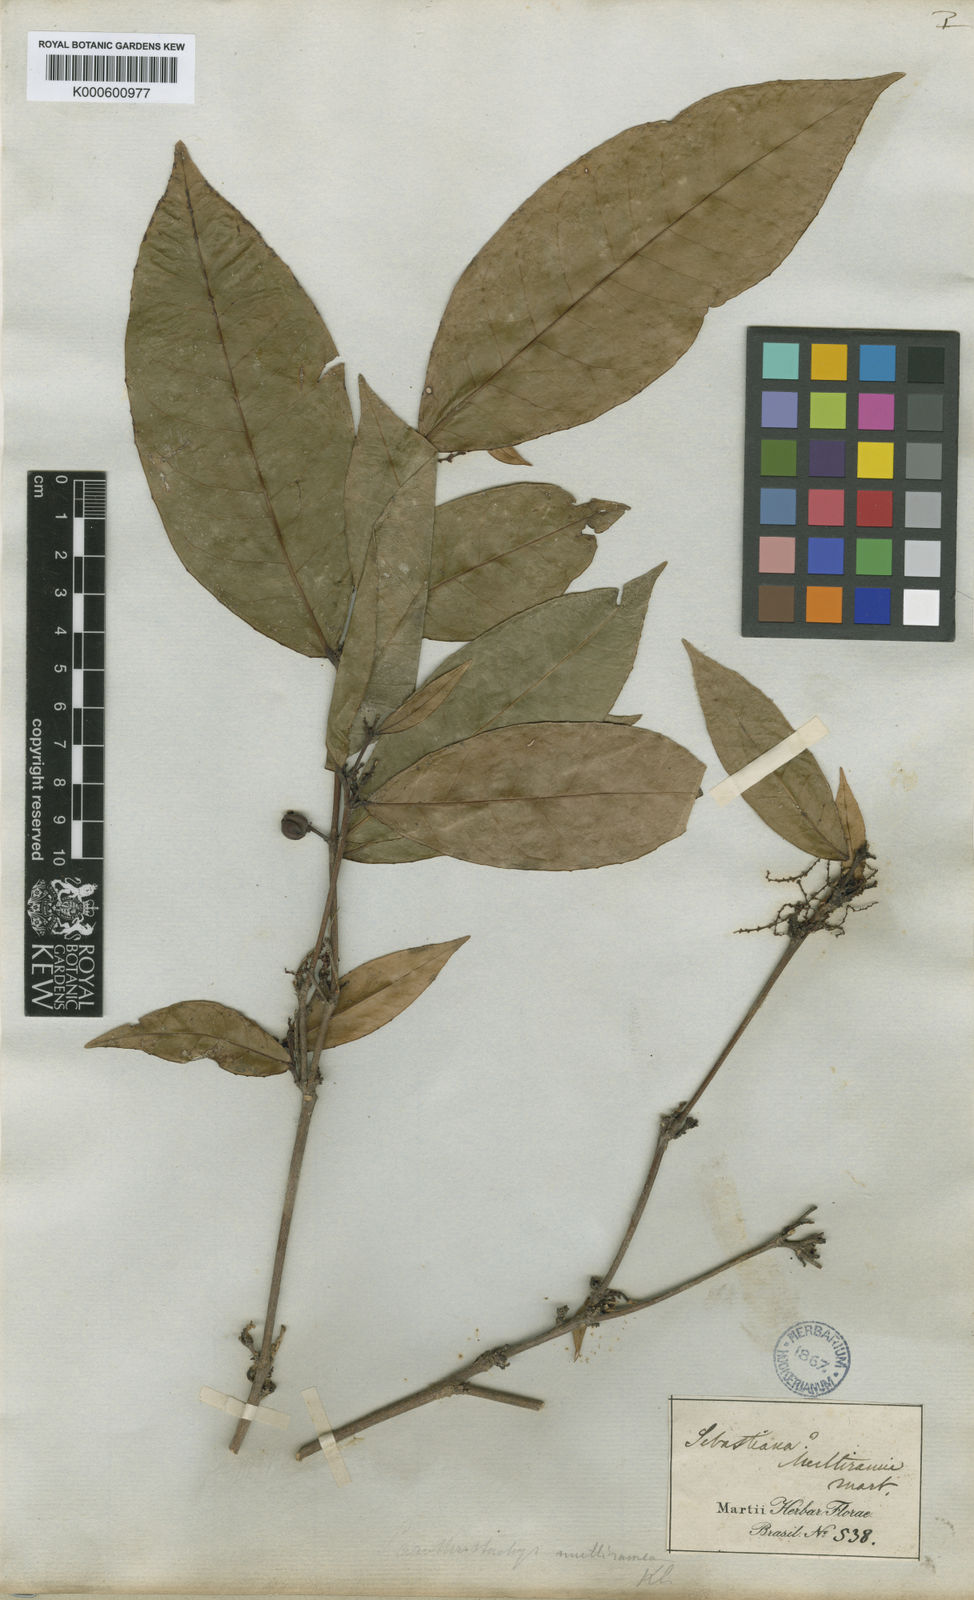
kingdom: Plantae
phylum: Tracheophyta
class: Magnoliopsida
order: Malpighiales
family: Euphorbiaceae
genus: Gymnanthes
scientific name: Gymnanthes
